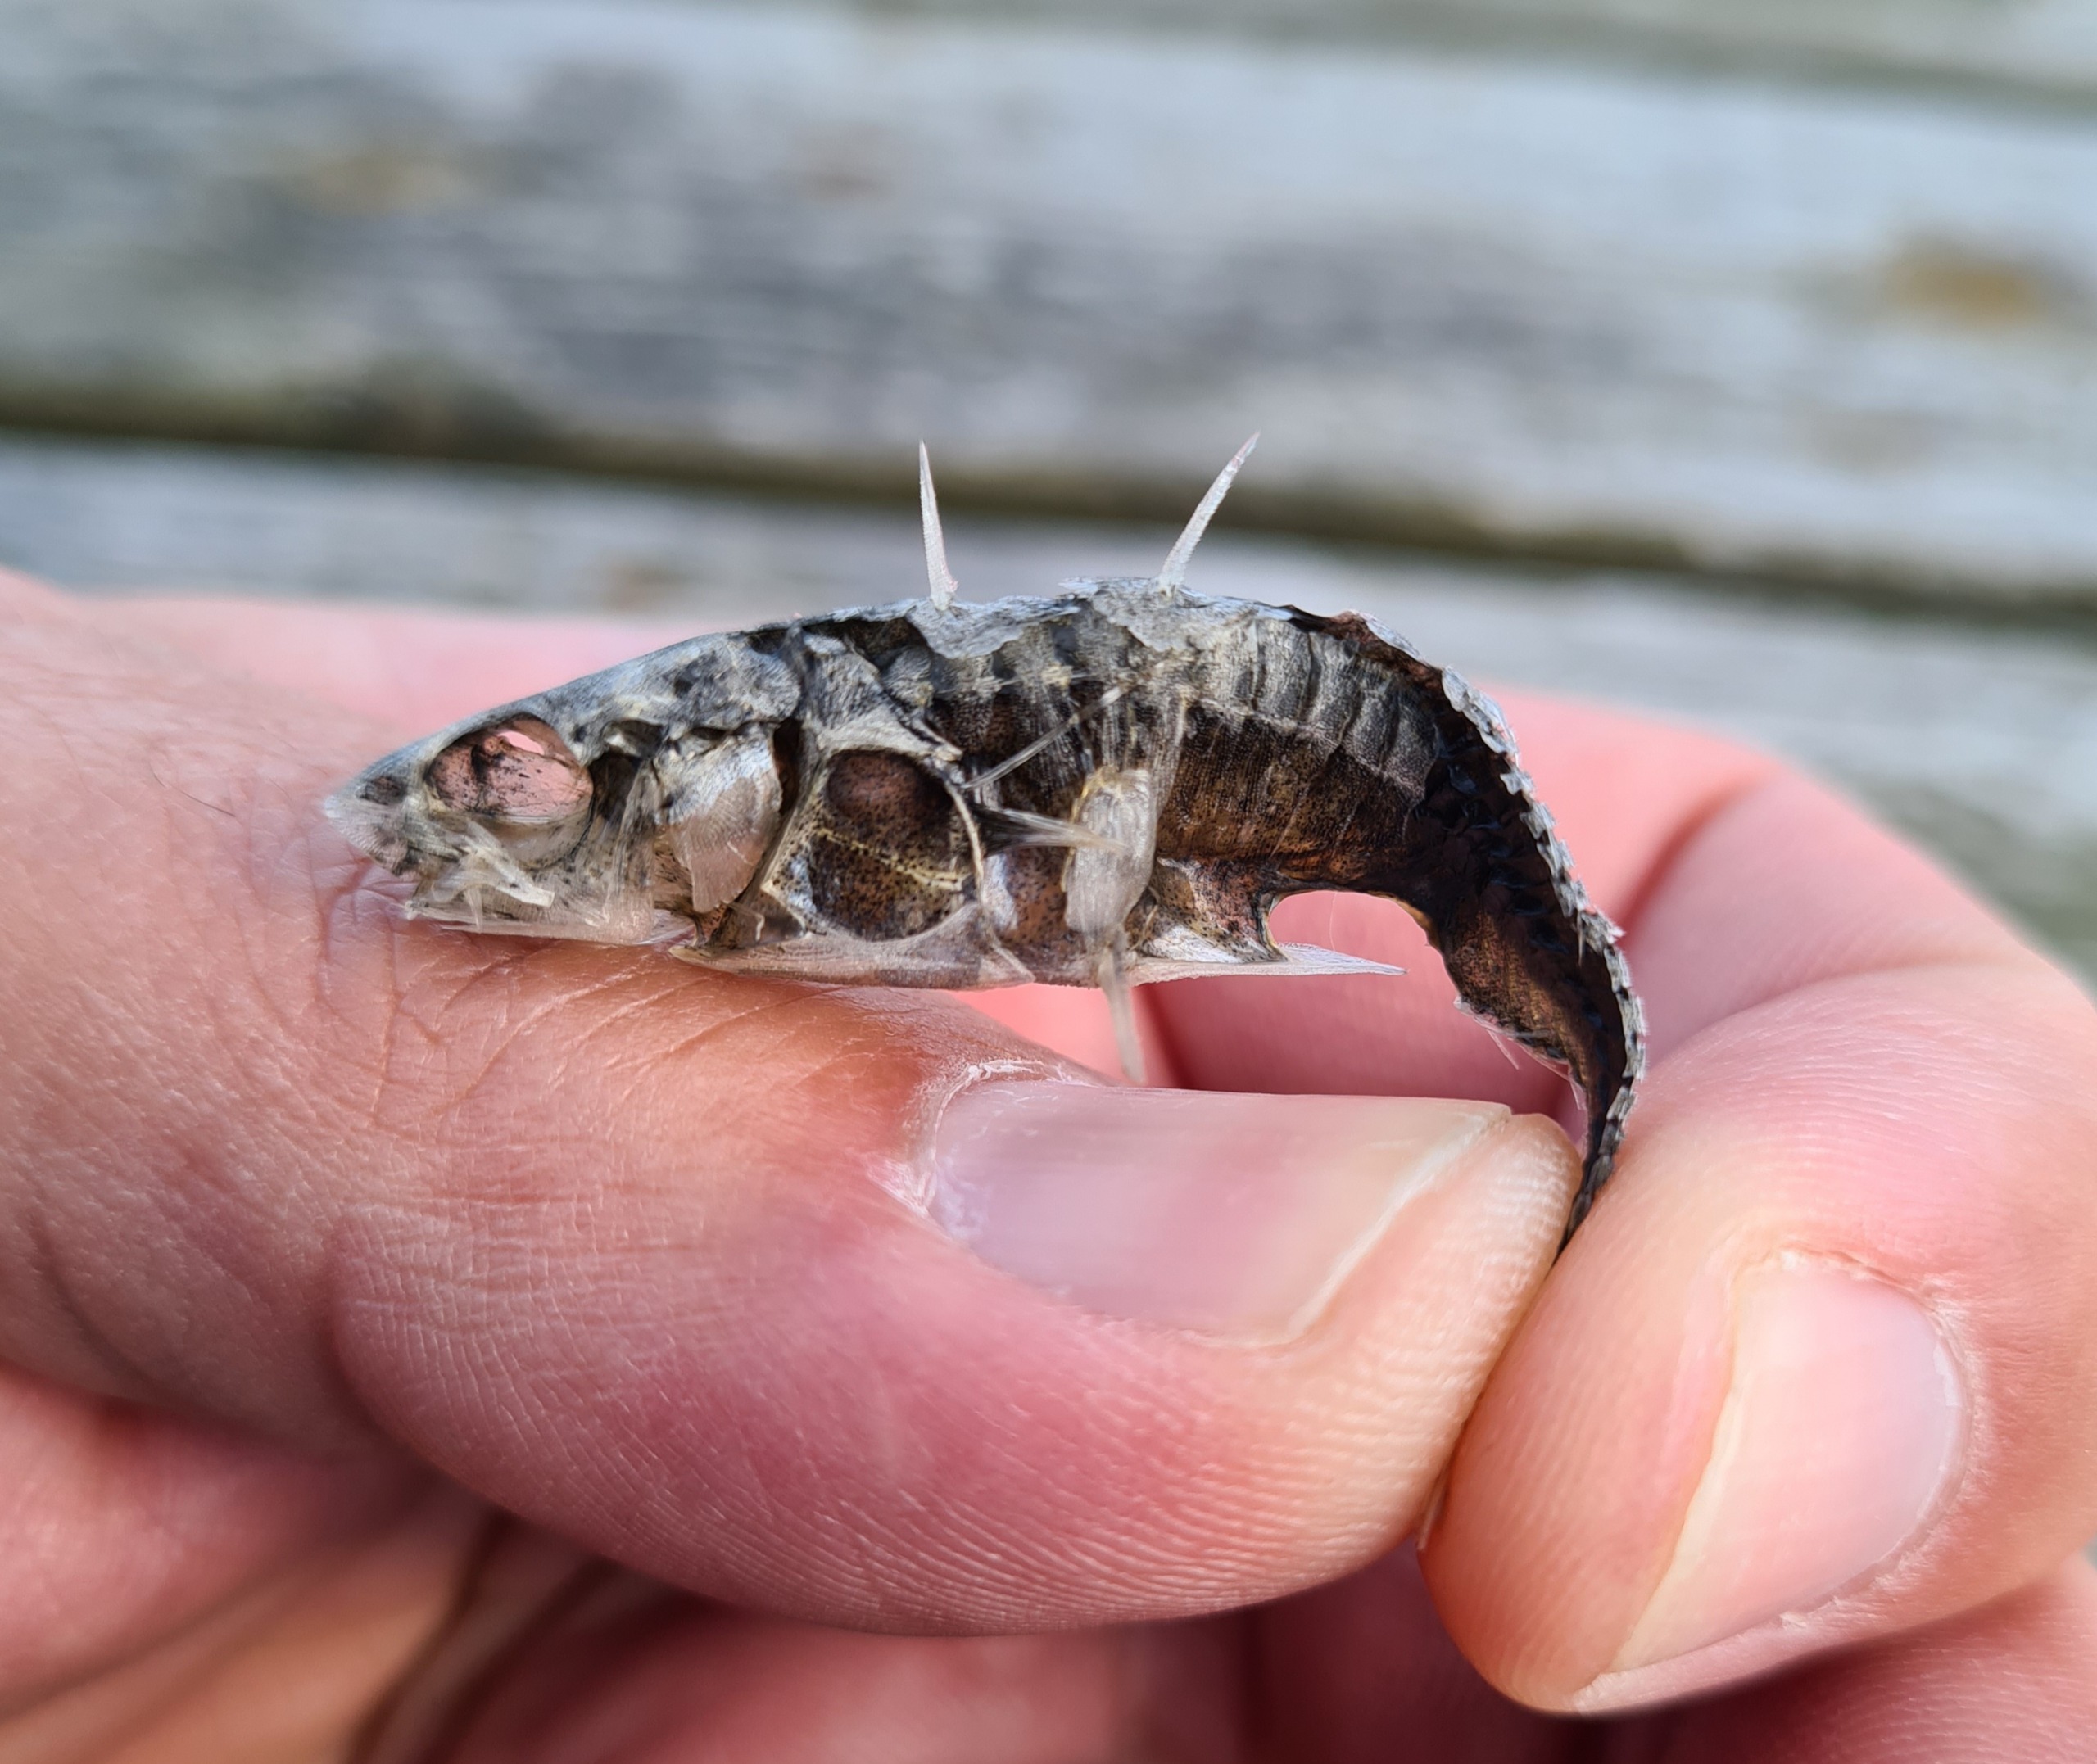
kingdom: Animalia
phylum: Chordata
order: Gasterosteiformes
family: Gasterosteidae
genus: Gasterosteus
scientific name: Gasterosteus aculeatus
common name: Trepigget hundestejle
